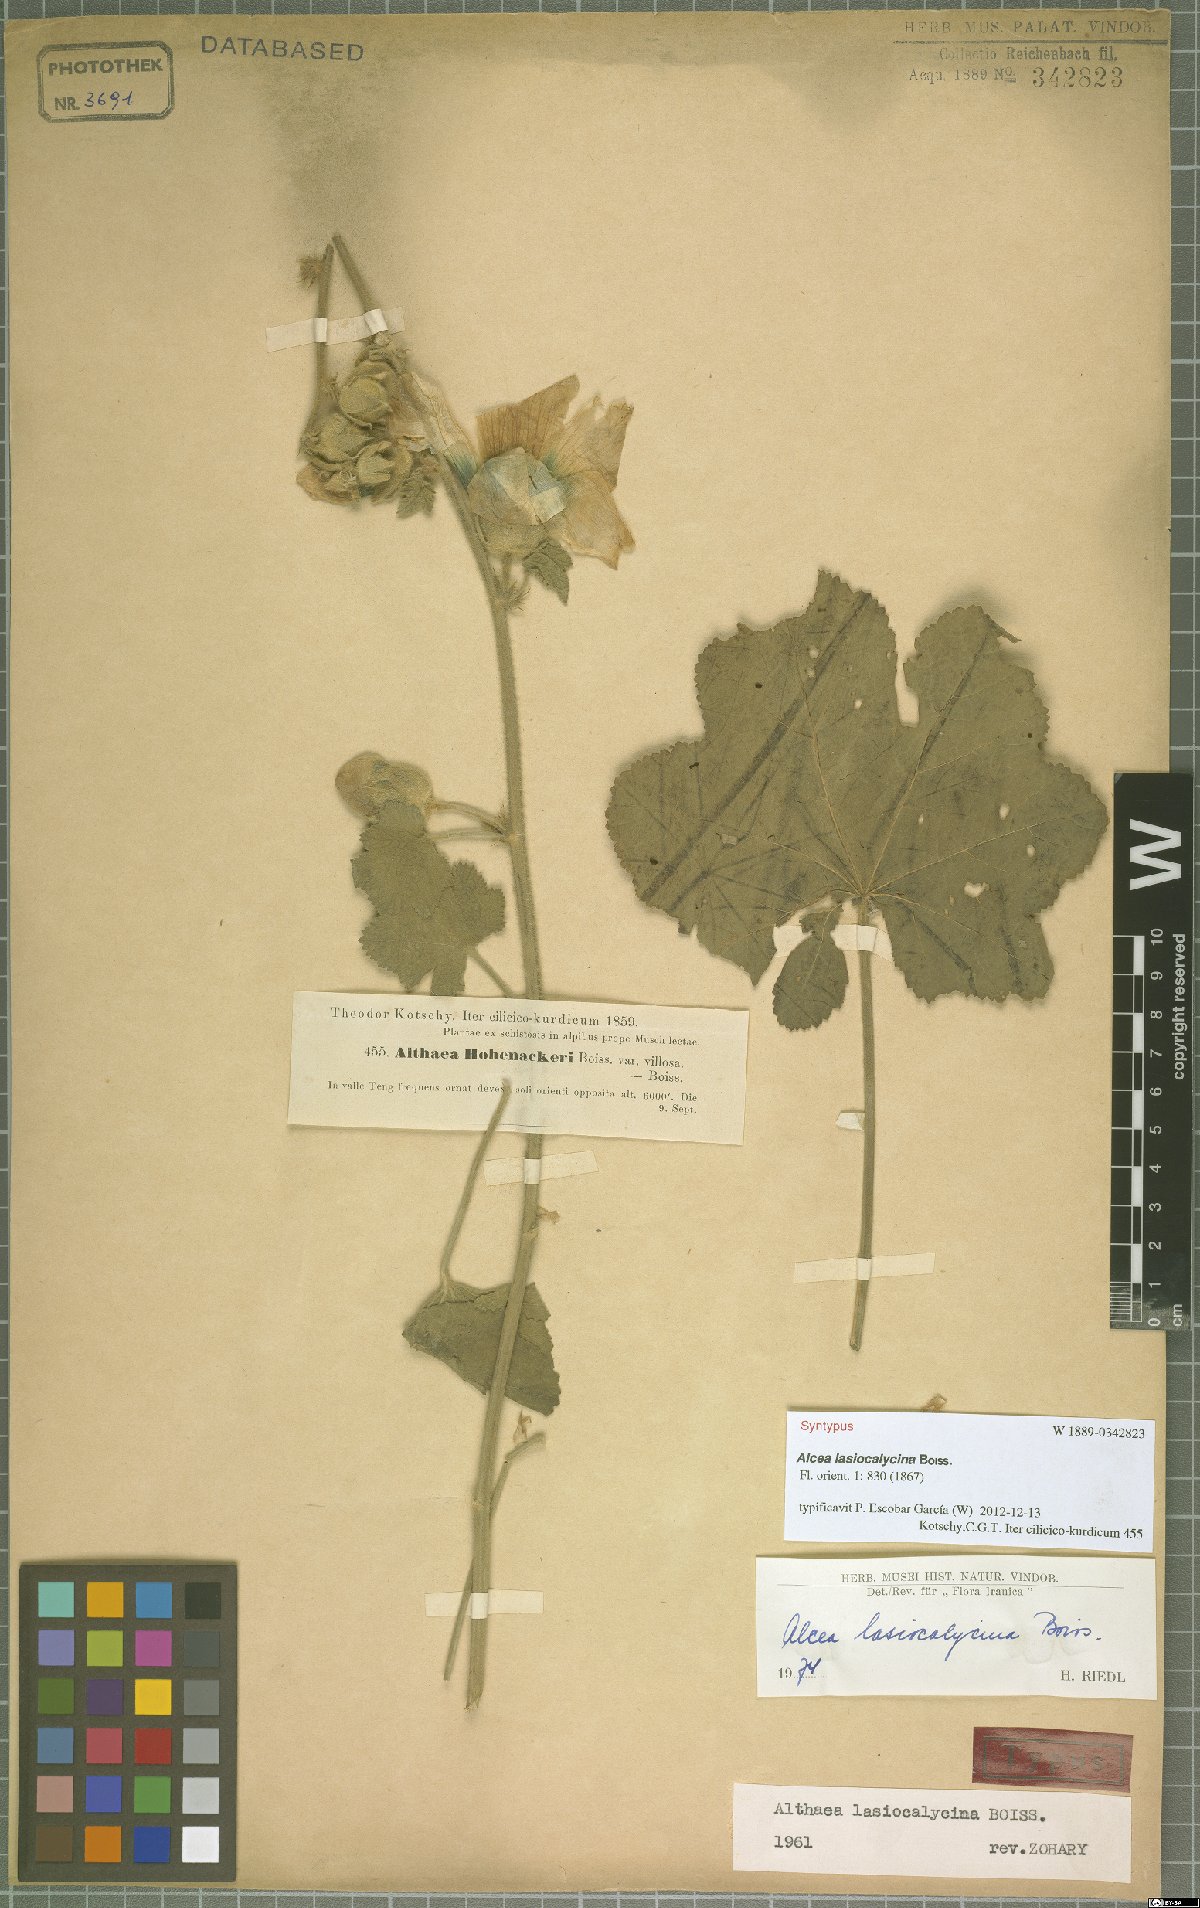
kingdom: Plantae
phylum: Tracheophyta
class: Magnoliopsida
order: Malvales
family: Malvaceae
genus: Alcea
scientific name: Alcea lasiocalycina
